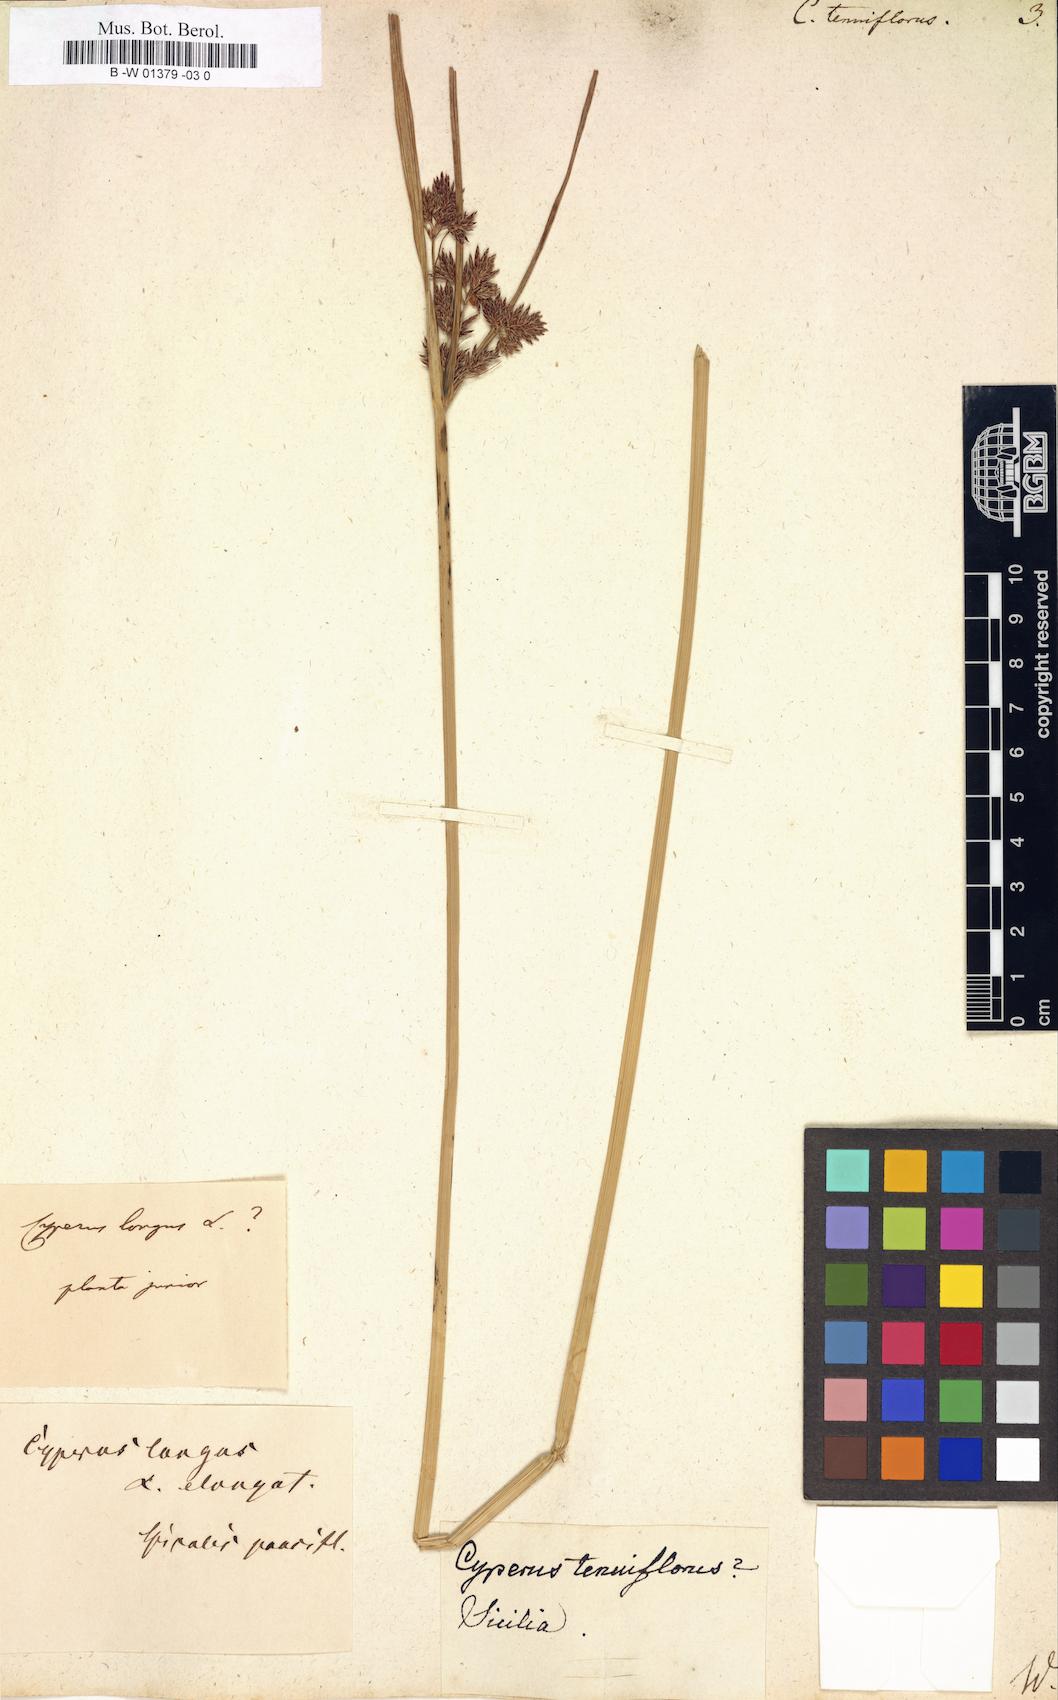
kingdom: Plantae
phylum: Tracheophyta
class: Liliopsida
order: Poales
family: Cyperaceae
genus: Cyperus
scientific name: Cyperus longus
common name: Galingale
